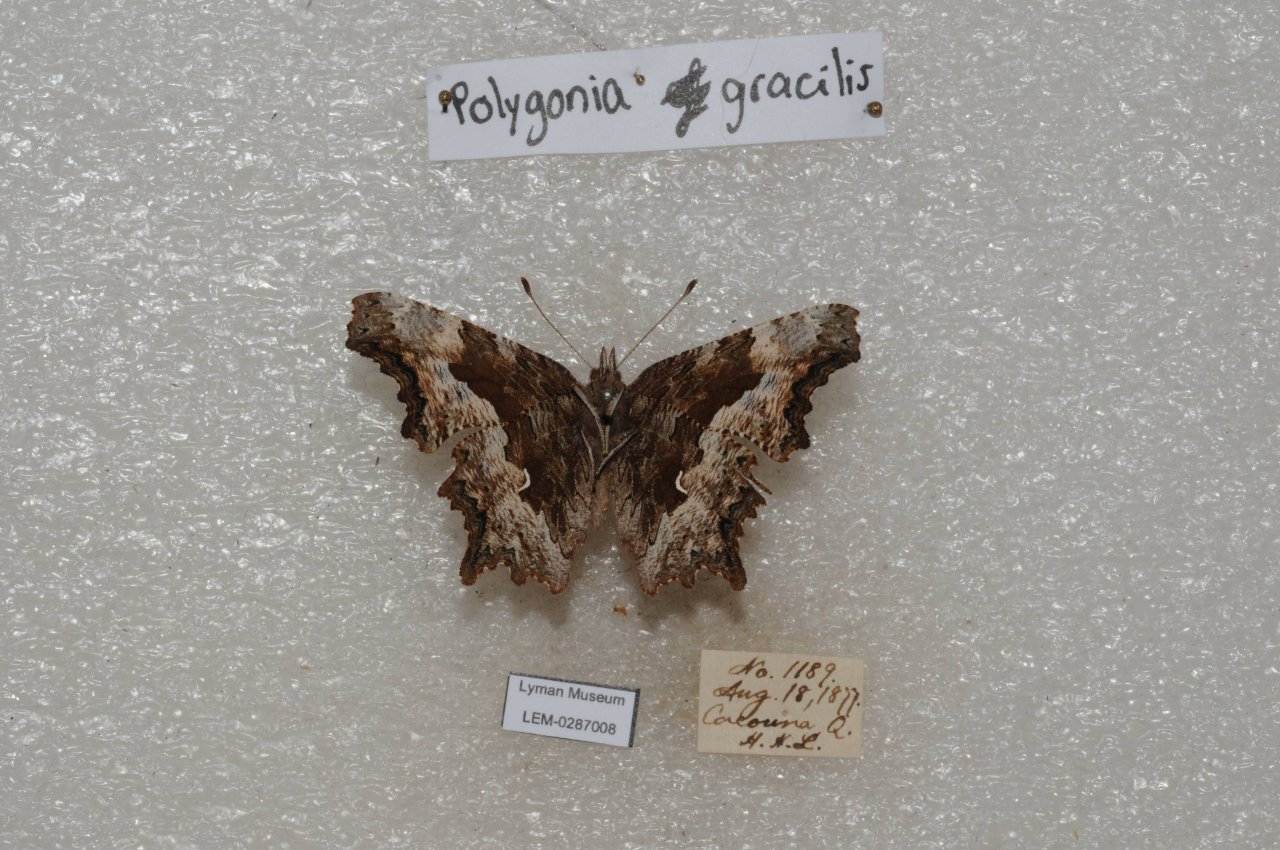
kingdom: Animalia
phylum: Arthropoda
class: Insecta
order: Lepidoptera
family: Nymphalidae
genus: Polygonia
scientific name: Polygonia gracilis
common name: Hoary Comma
